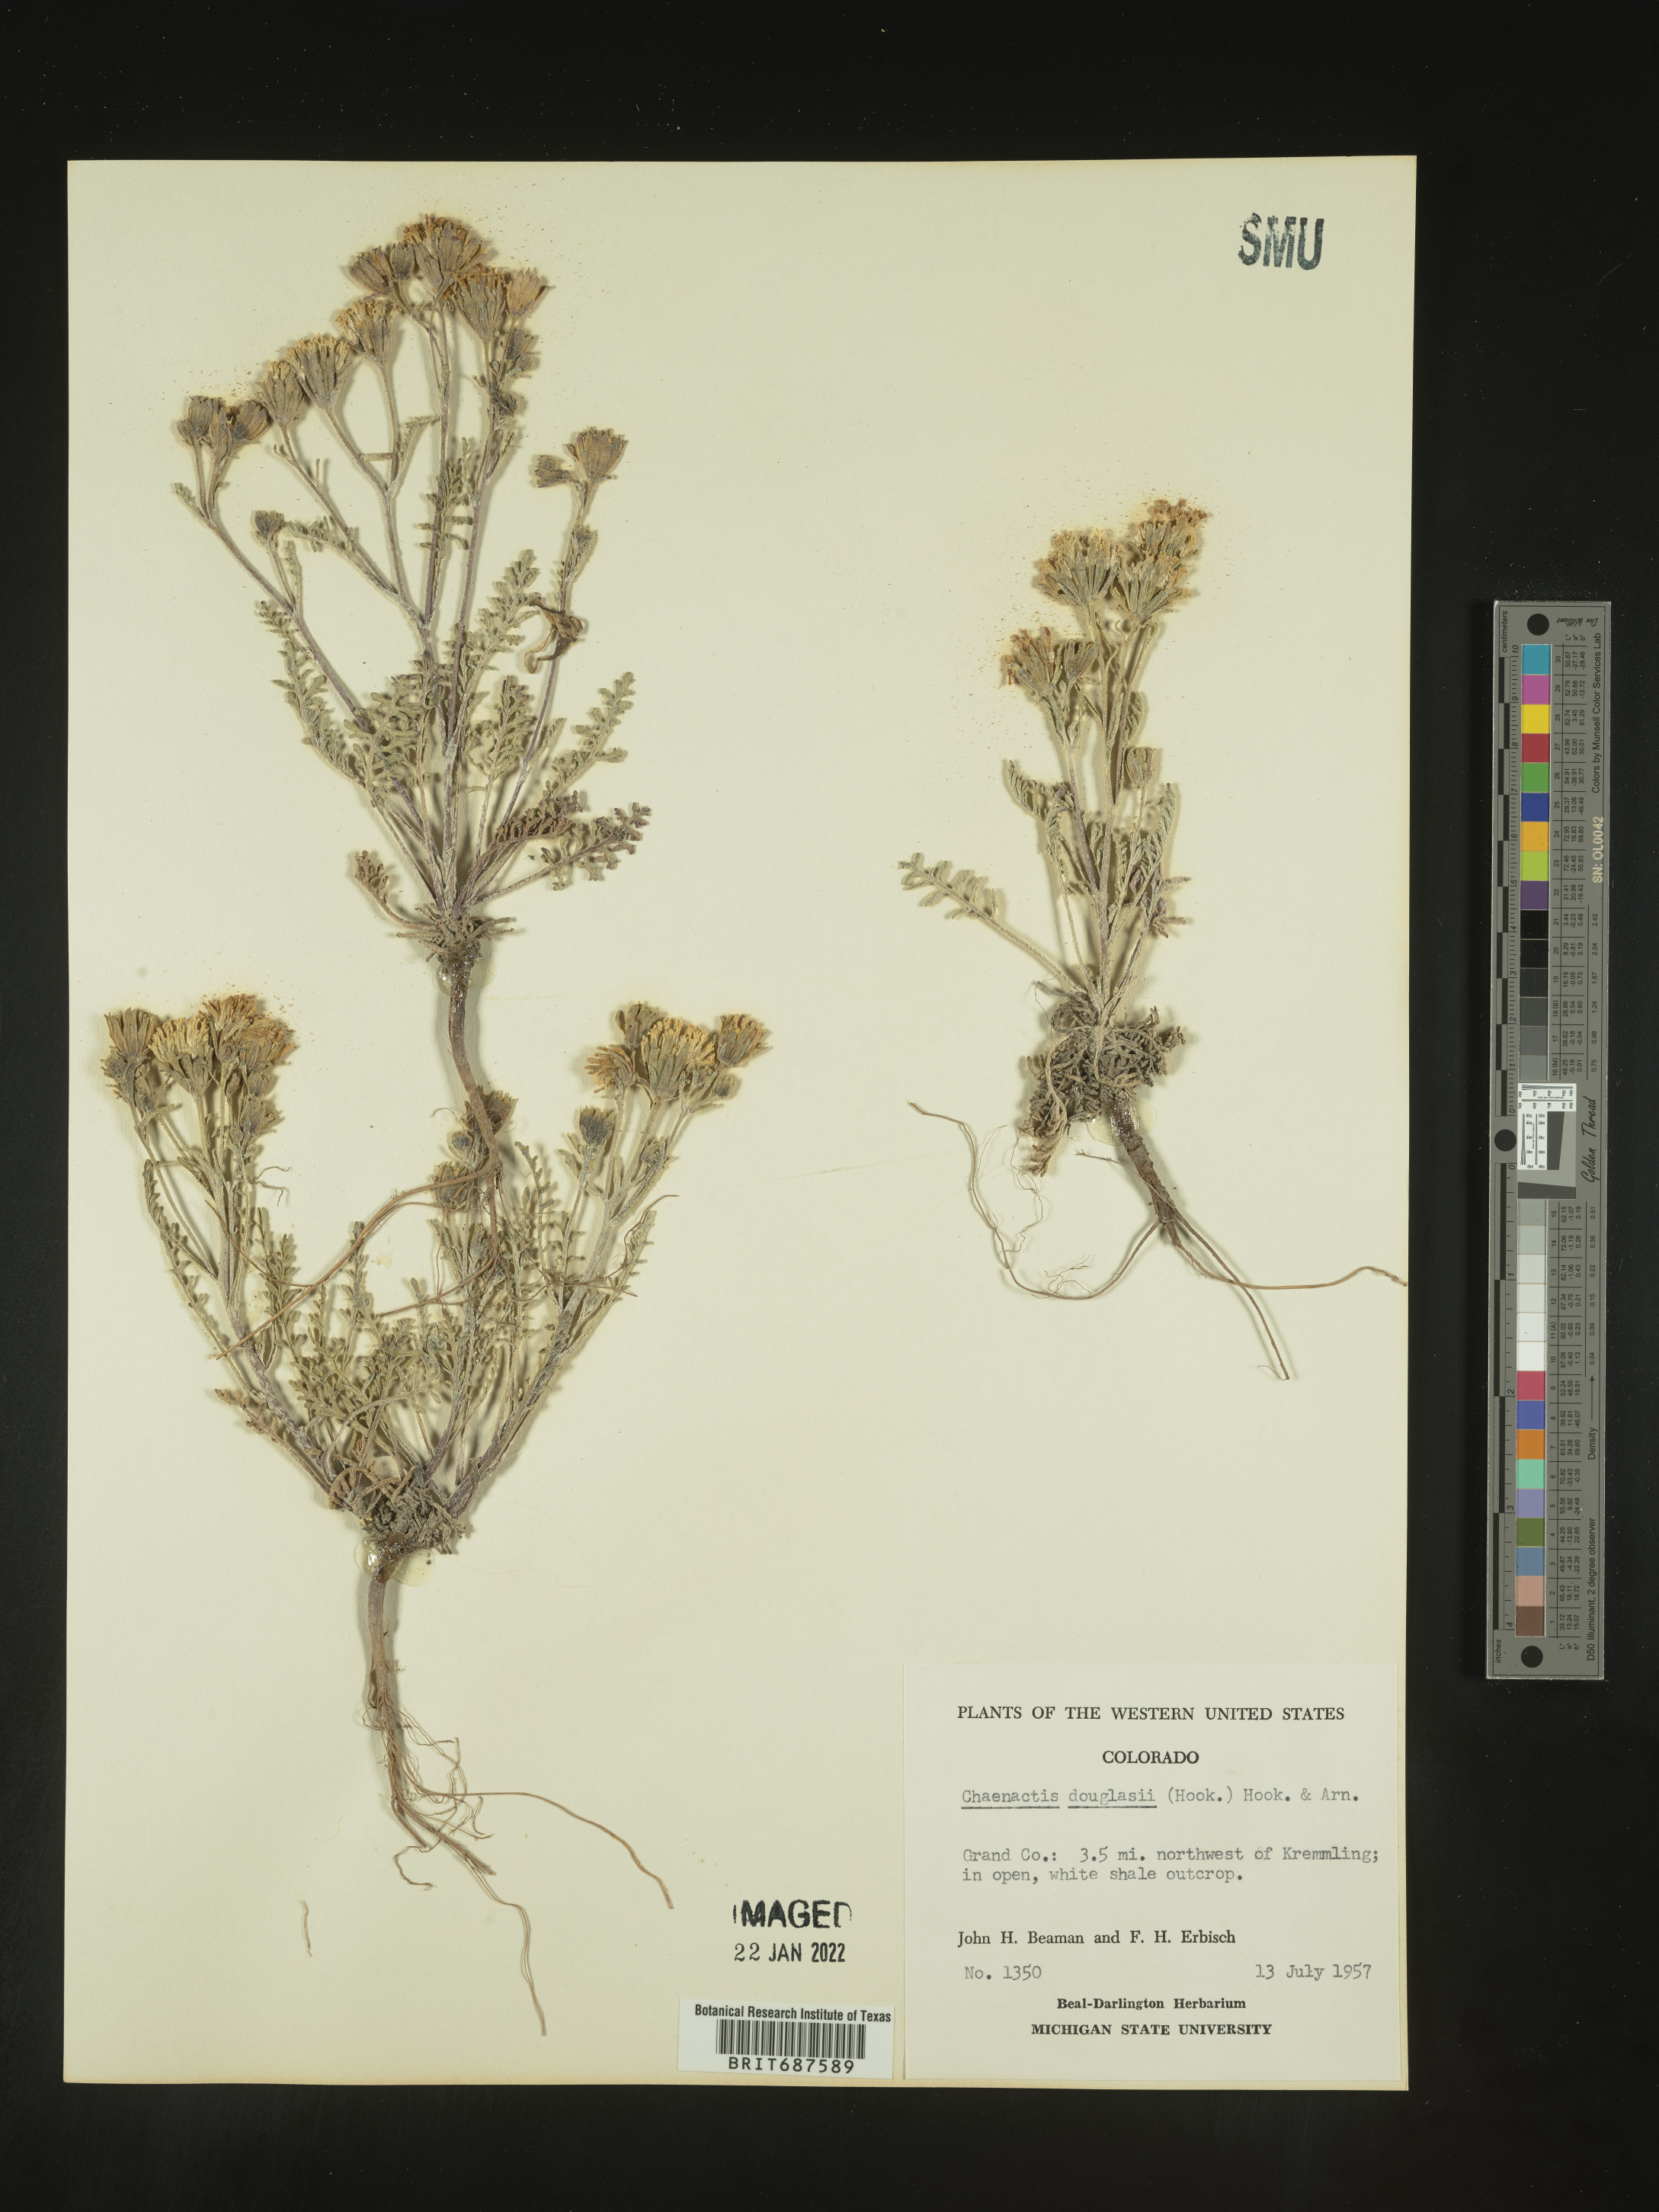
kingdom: Plantae
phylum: Tracheophyta
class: Magnoliopsida
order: Asterales
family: Asteraceae
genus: Chaenactis
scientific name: Chaenactis douglasii
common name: Hoary pincushion
